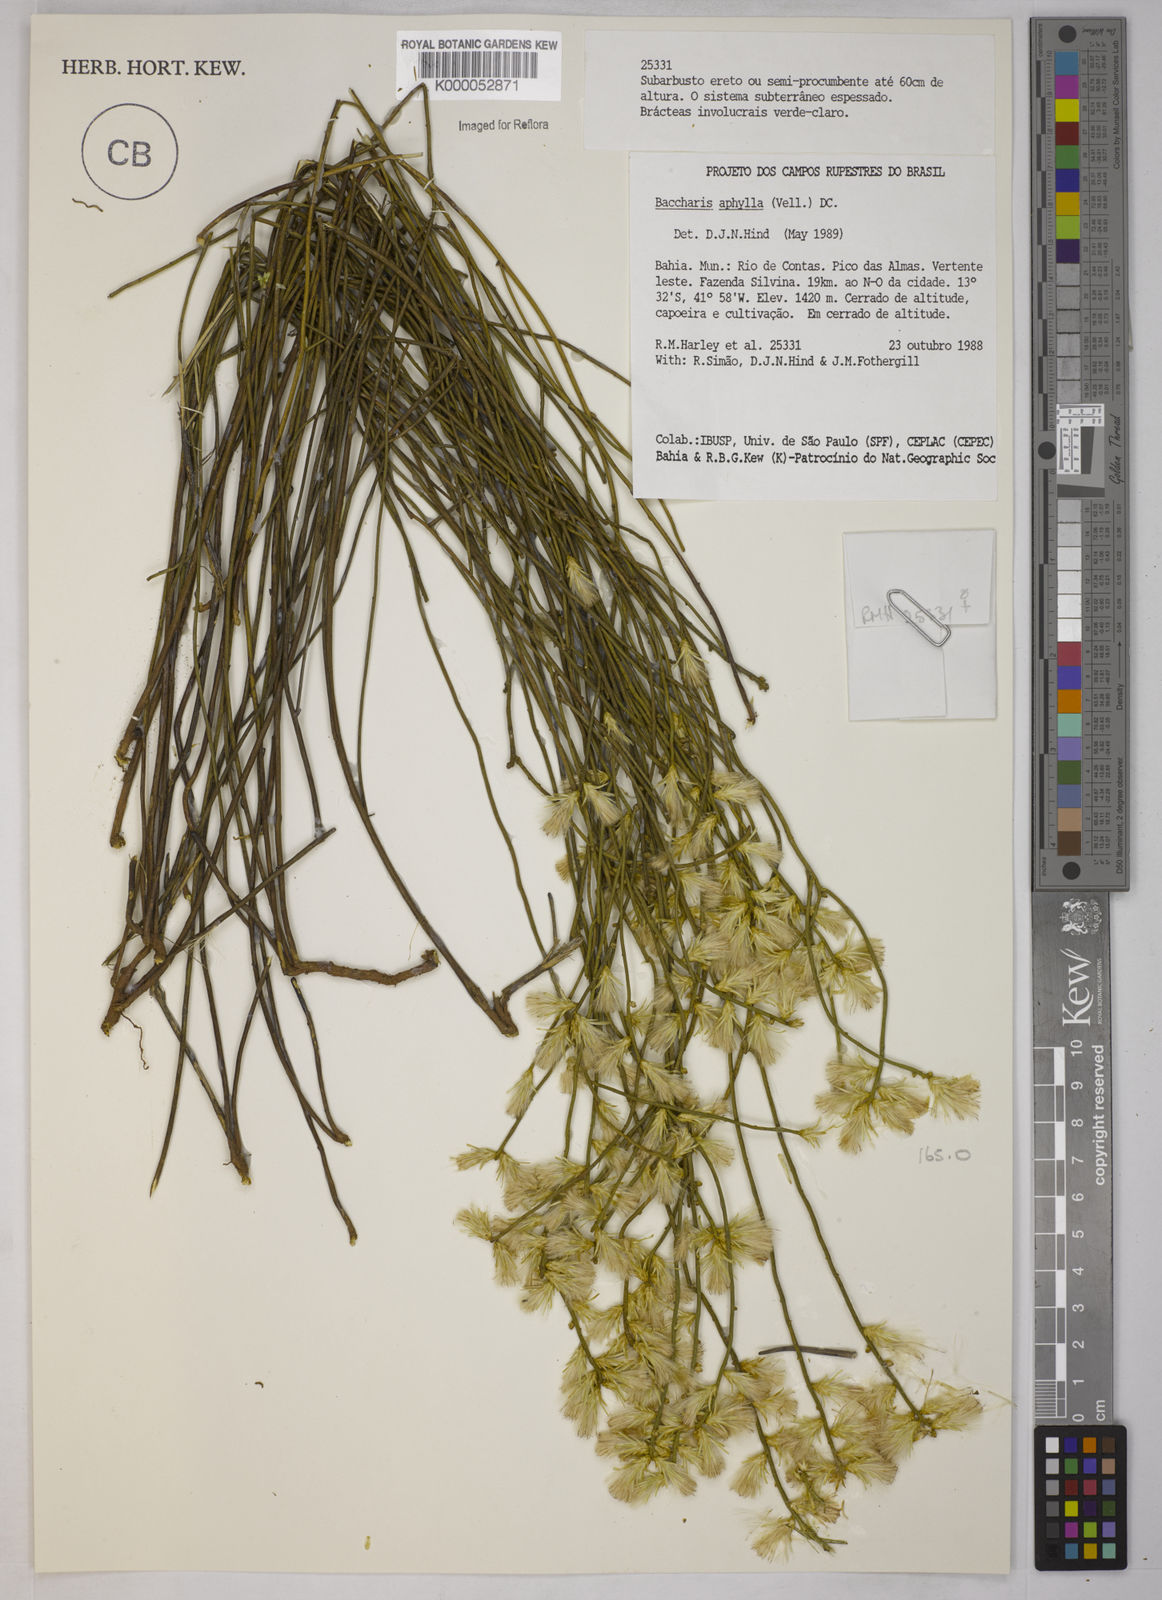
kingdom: Plantae
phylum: Tracheophyta
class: Magnoliopsida
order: Asterales
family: Asteraceae
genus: Baccharis
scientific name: Baccharis aphylla
